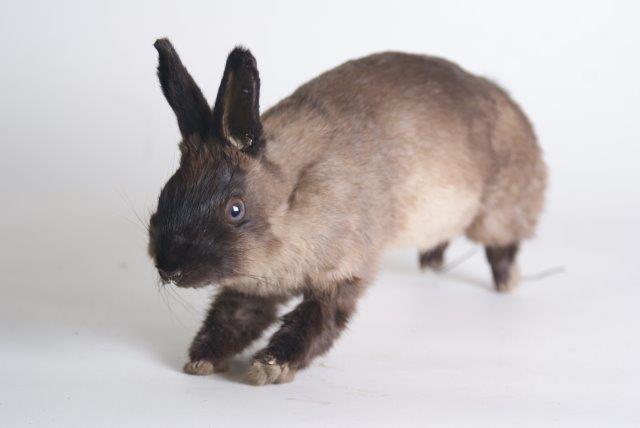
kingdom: Animalia
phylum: Chordata
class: Mammalia
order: Lagomorpha
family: Leporidae
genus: Oryctolagus
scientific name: Oryctolagus cuniculus
